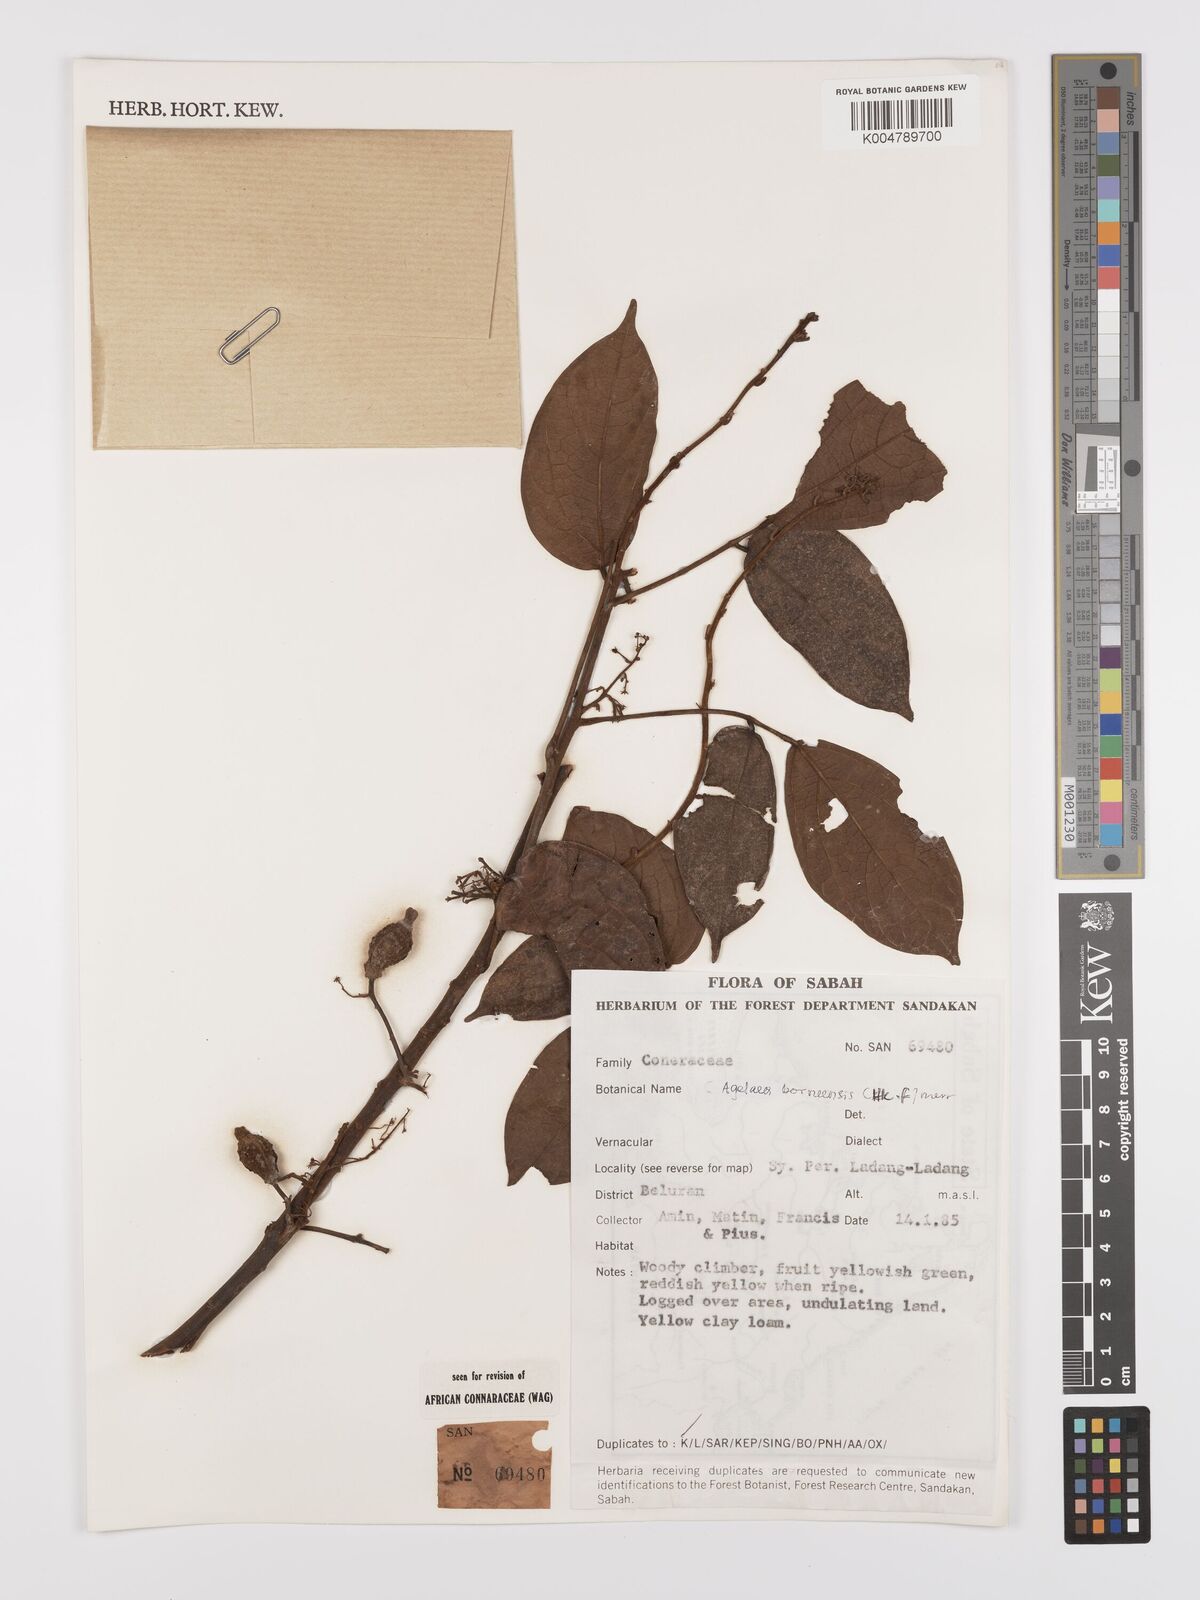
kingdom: Plantae
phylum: Tracheophyta
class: Magnoliopsida
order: Oxalidales
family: Connaraceae
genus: Agelaea
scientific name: Agelaea borneensis
